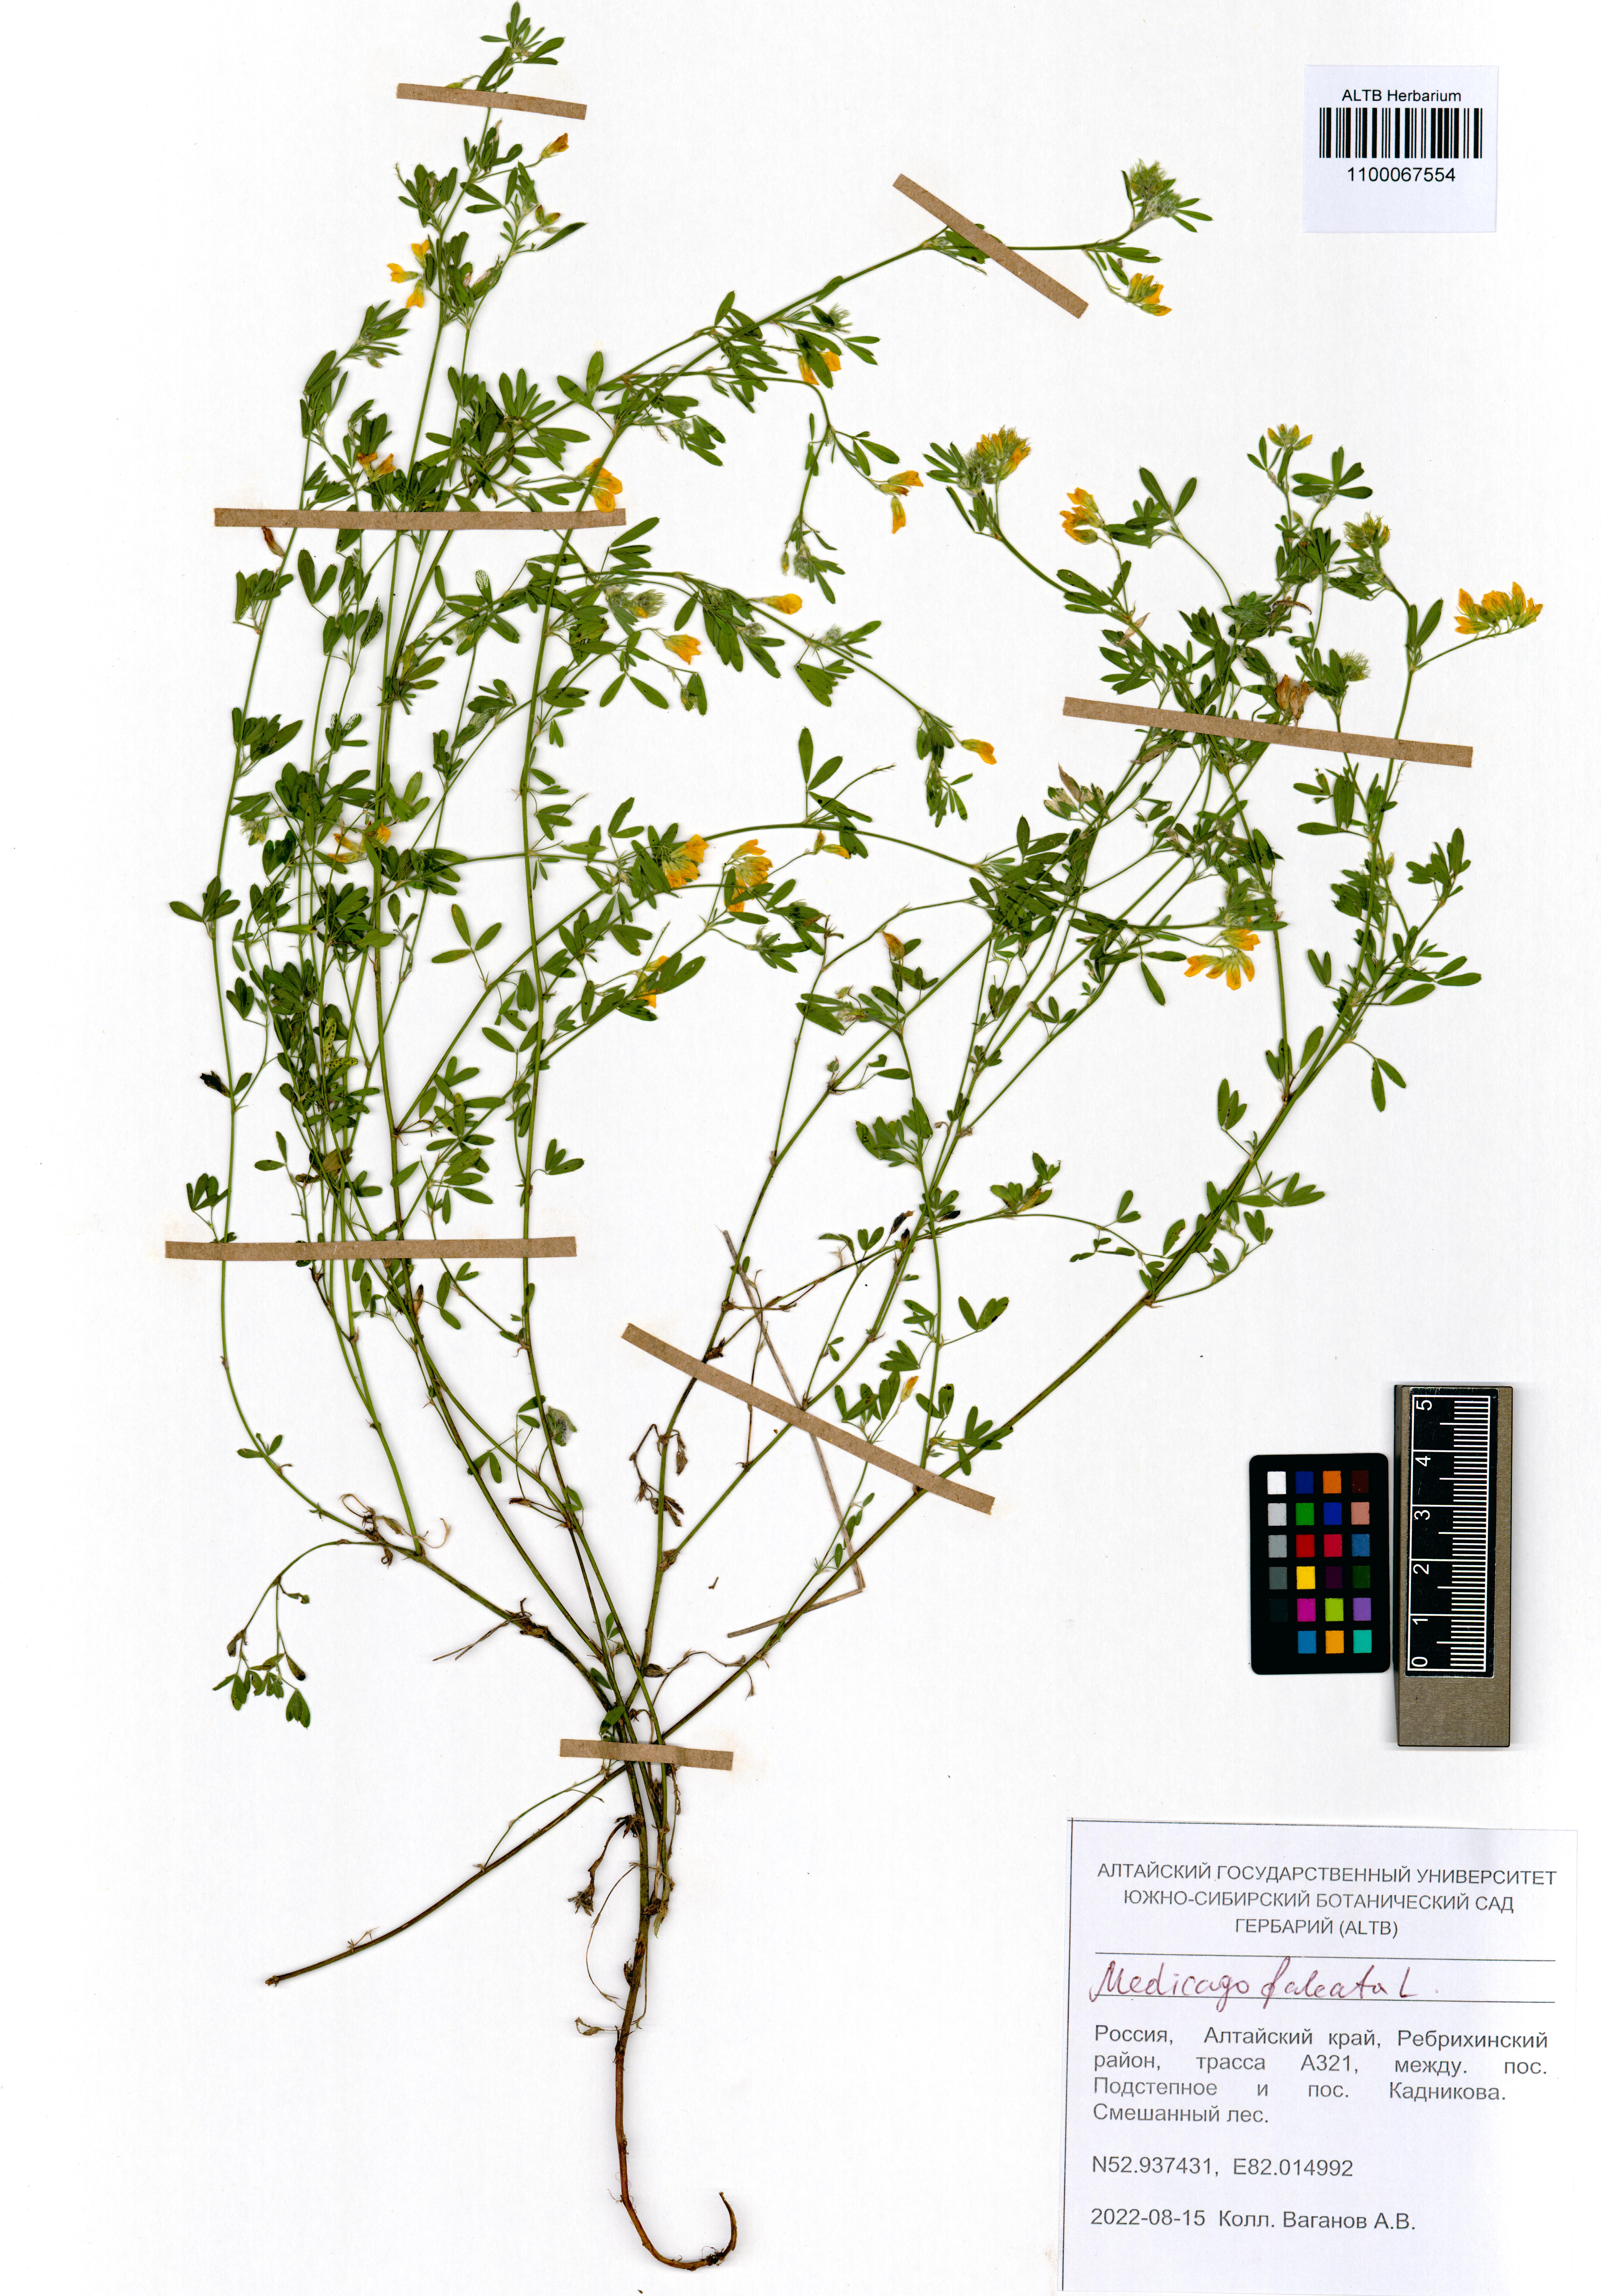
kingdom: Plantae
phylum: Tracheophyta
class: Magnoliopsida
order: Fabales
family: Fabaceae
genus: Medicago
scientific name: Medicago falcata
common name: Sickle medick
